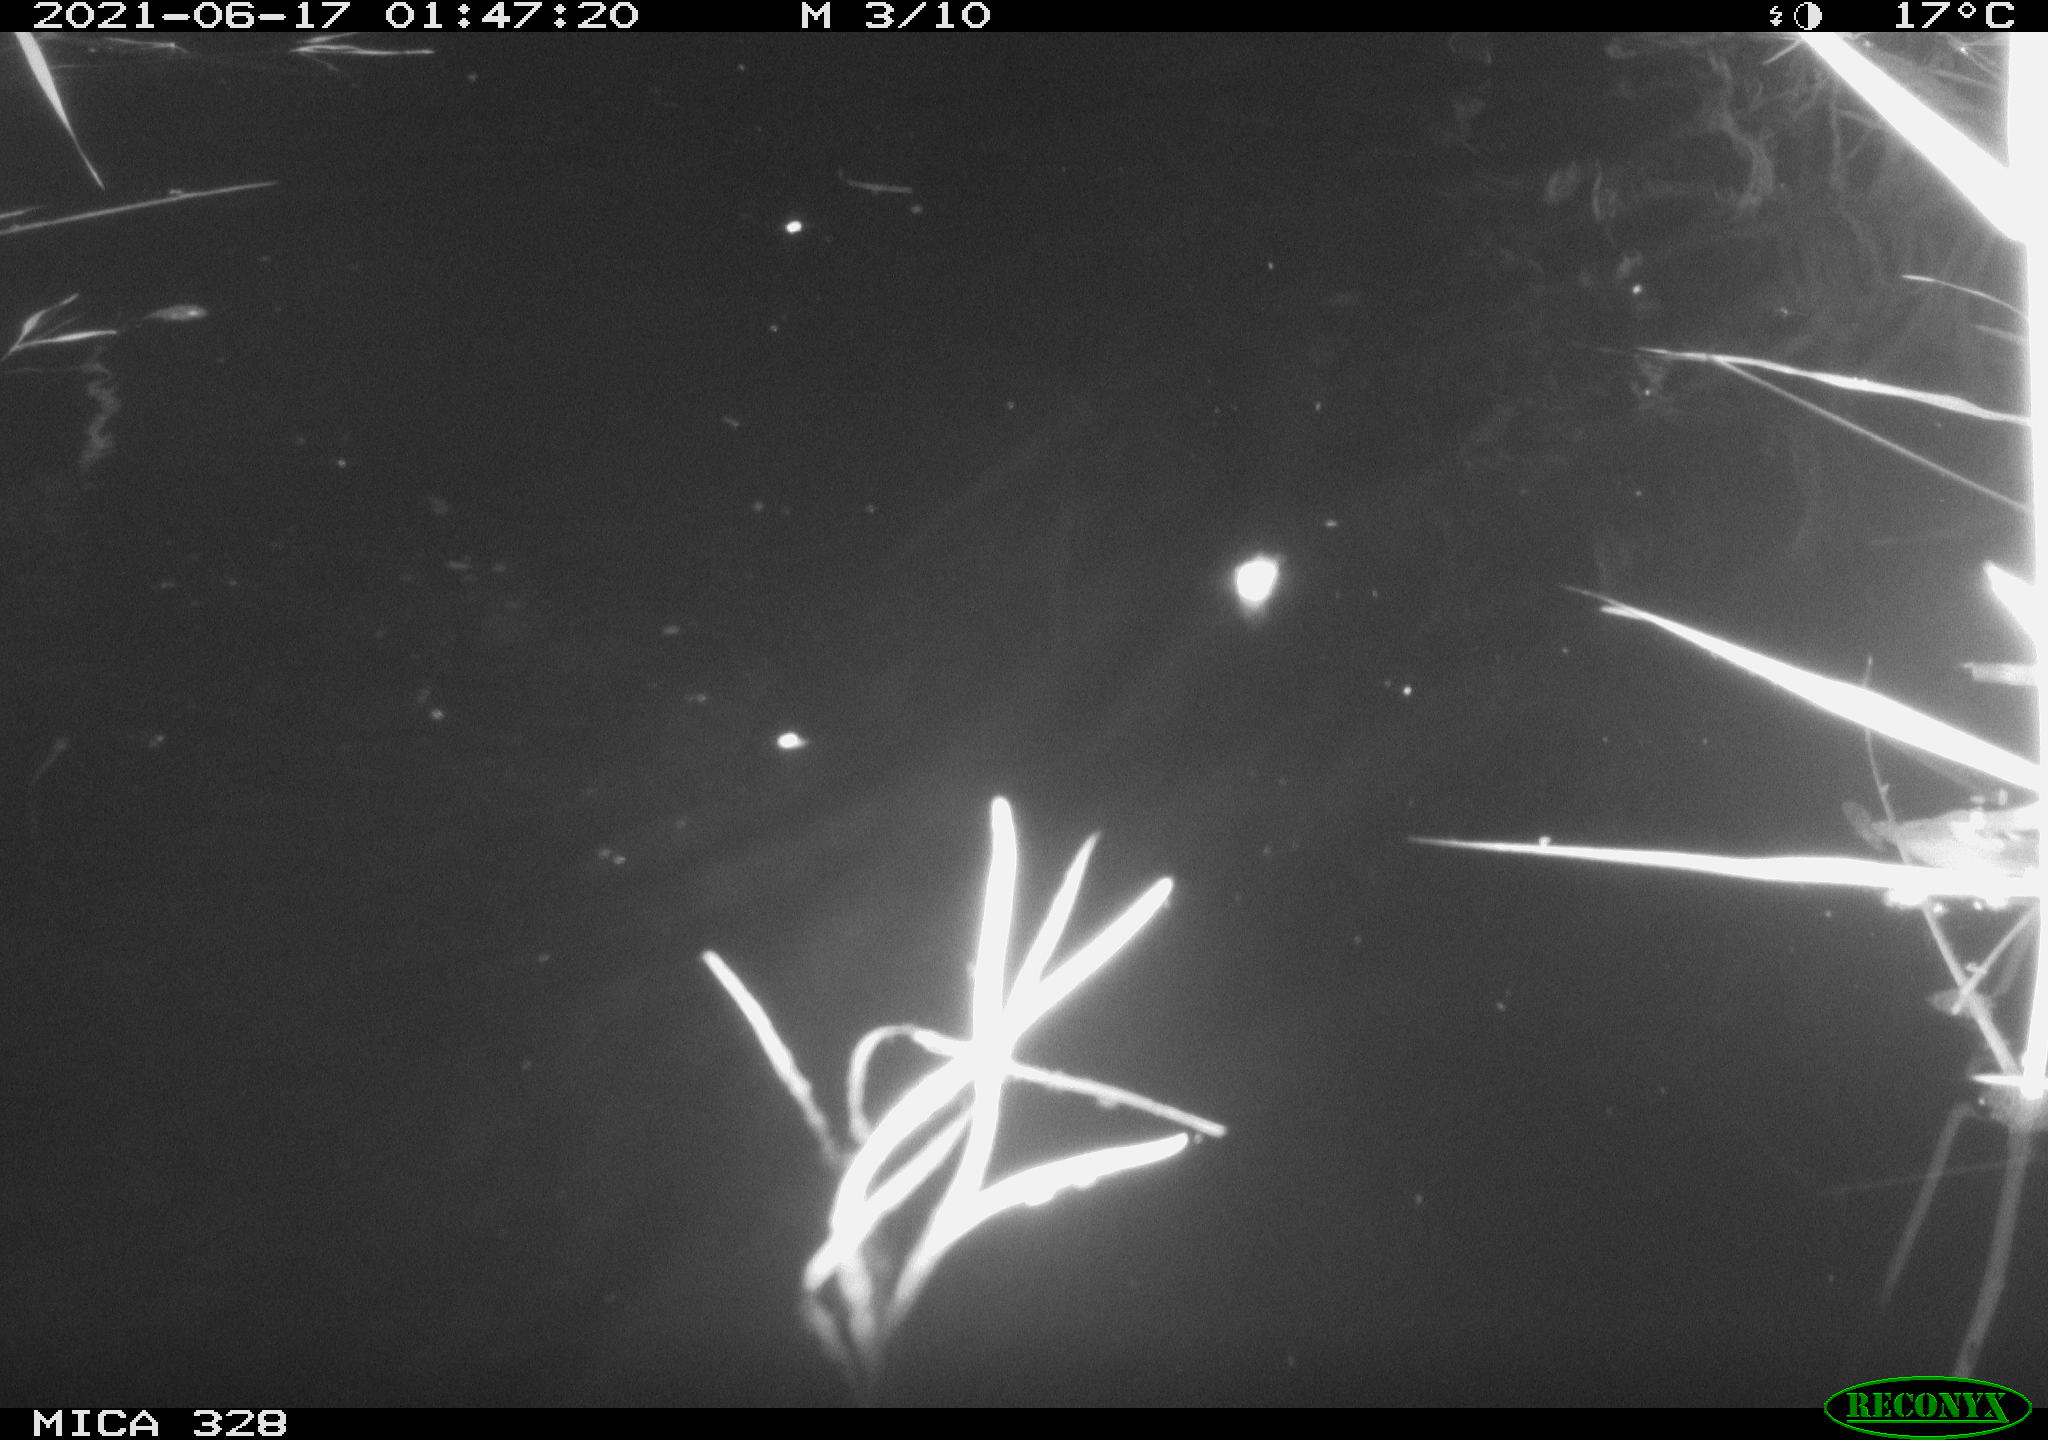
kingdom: Animalia
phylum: Chordata
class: Mammalia
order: Rodentia
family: Cricetidae
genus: Ondatra
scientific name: Ondatra zibethicus
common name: Muskrat
